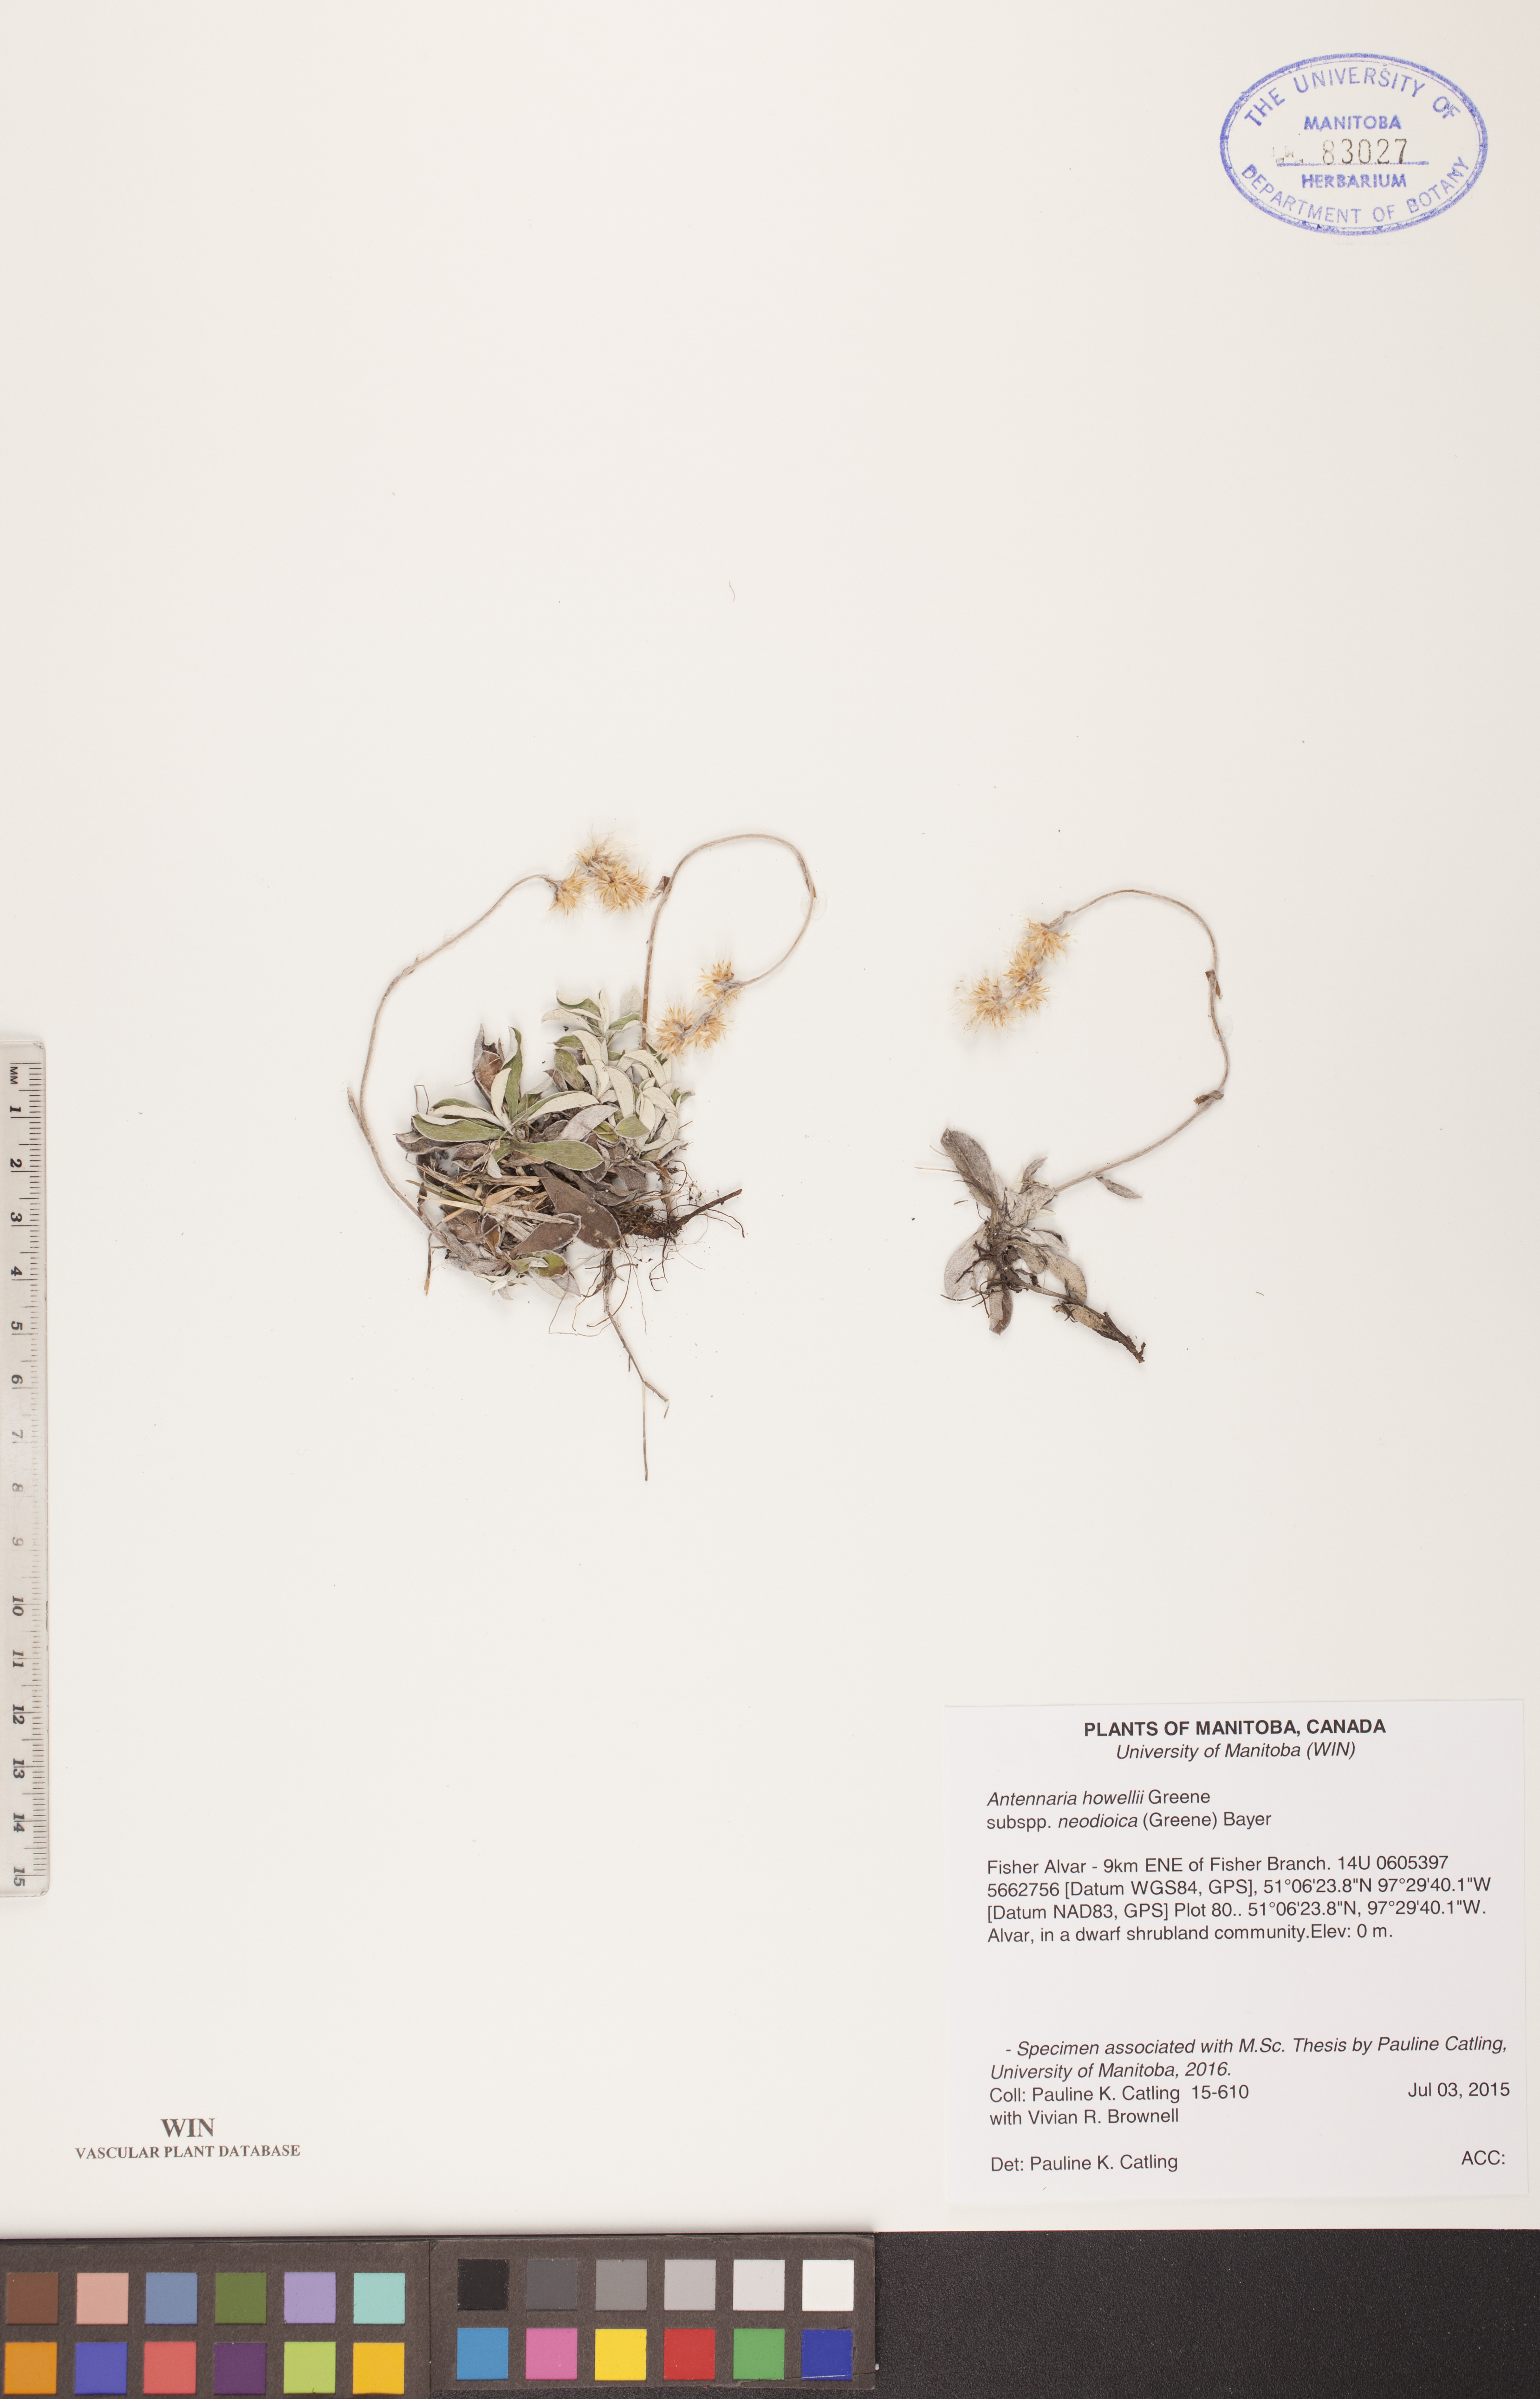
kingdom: Plantae
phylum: Tracheophyta
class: Magnoliopsida
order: Asterales
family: Asteraceae
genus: Antennaria
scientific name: Antennaria howellii
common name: Howell's pussytoes
